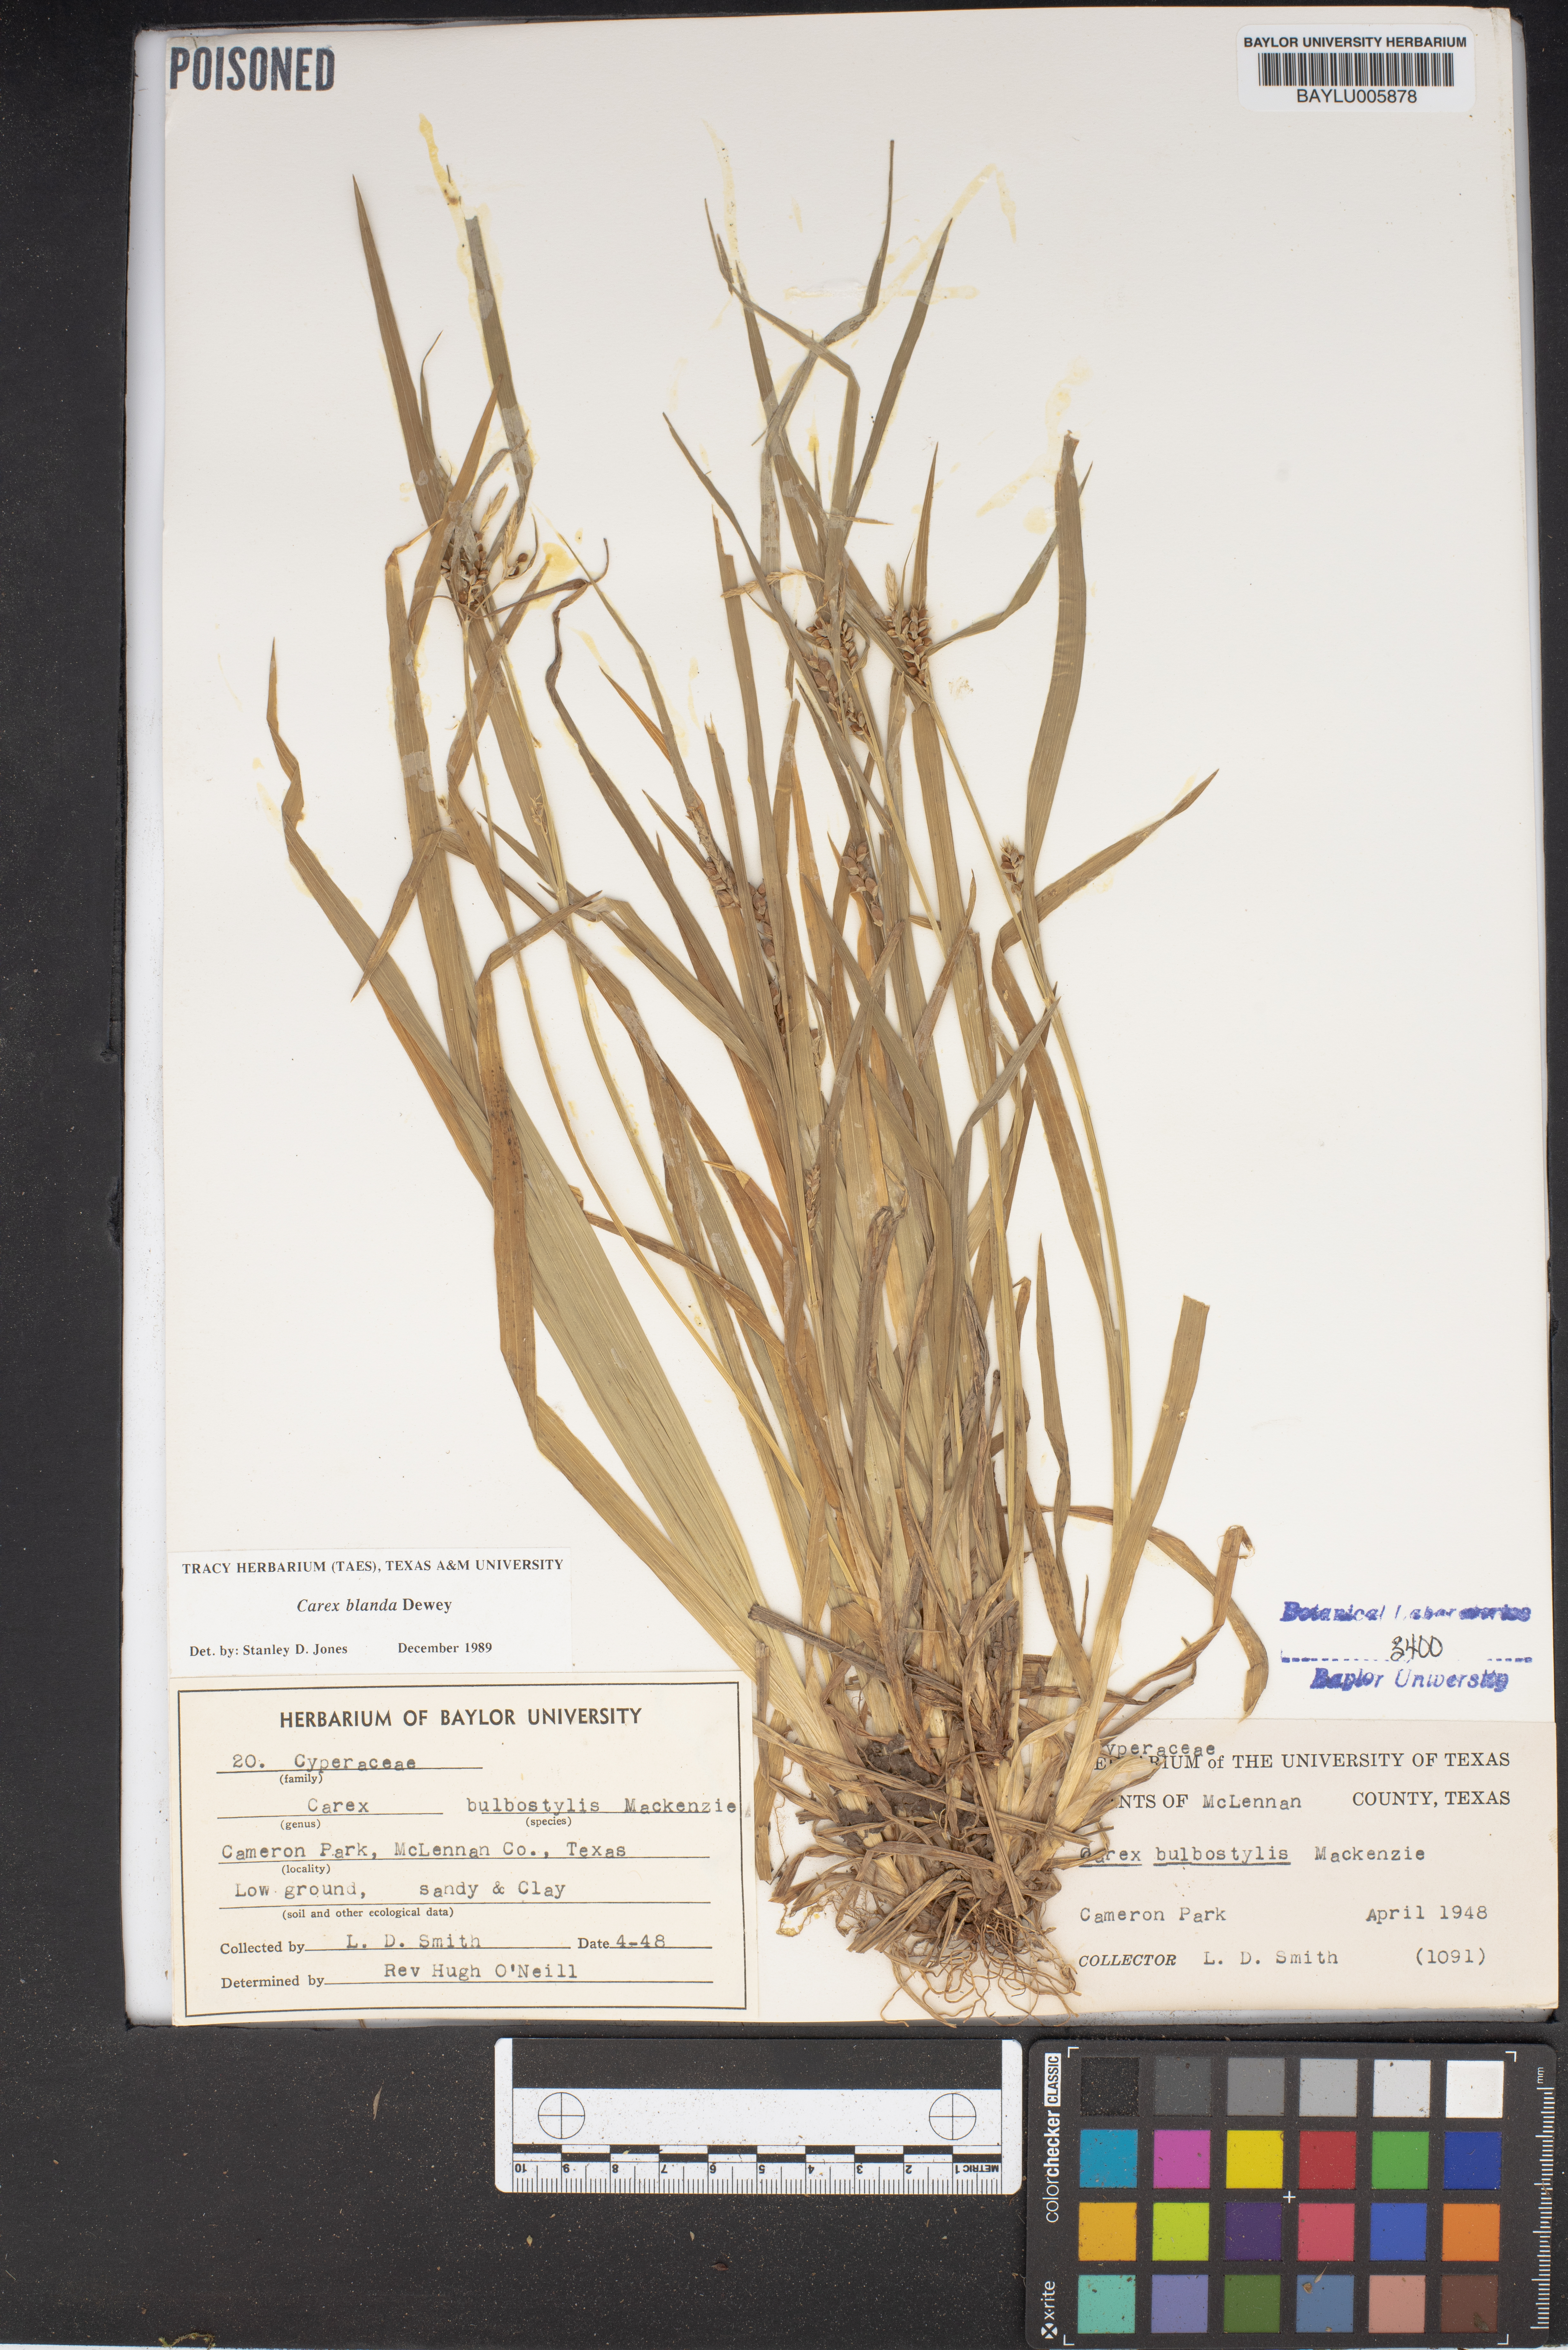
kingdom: Plantae
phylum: Tracheophyta
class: Liliopsida
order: Poales
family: Cyperaceae
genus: Carex
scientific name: Carex blanda
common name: Bland sedge
